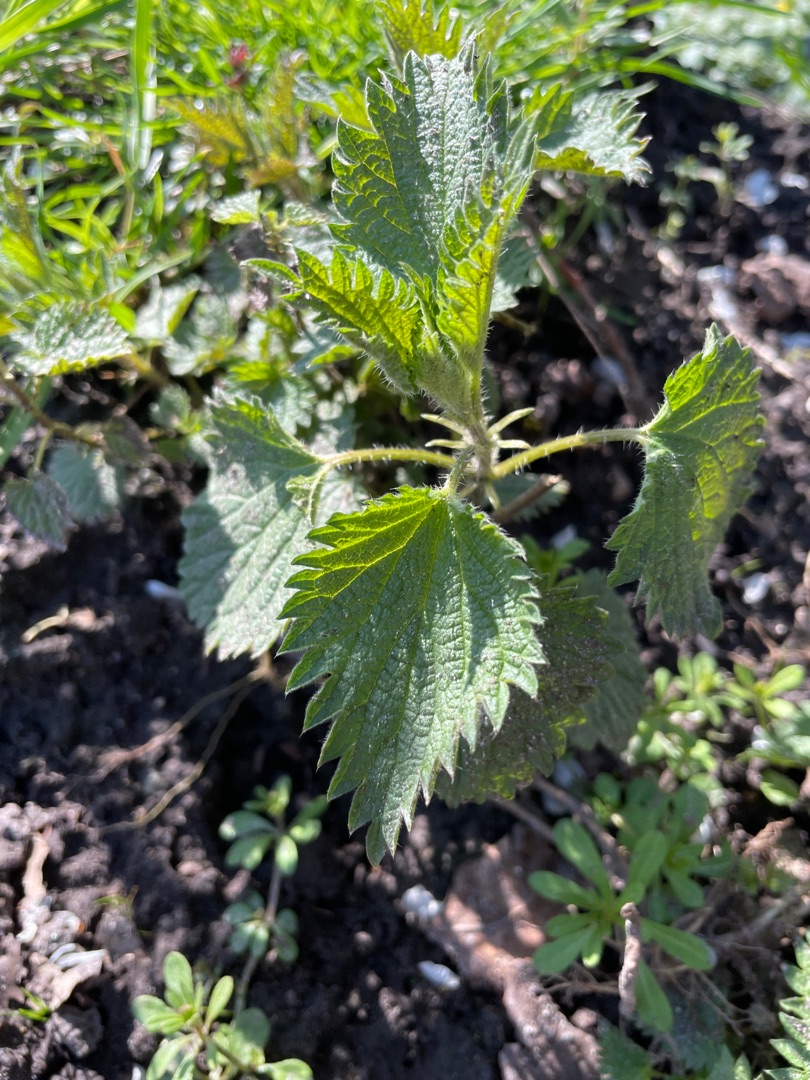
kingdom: Plantae
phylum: Tracheophyta
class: Magnoliopsida
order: Rosales
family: Urticaceae
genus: Urtica
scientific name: Urtica dioica
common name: Stor nælde
